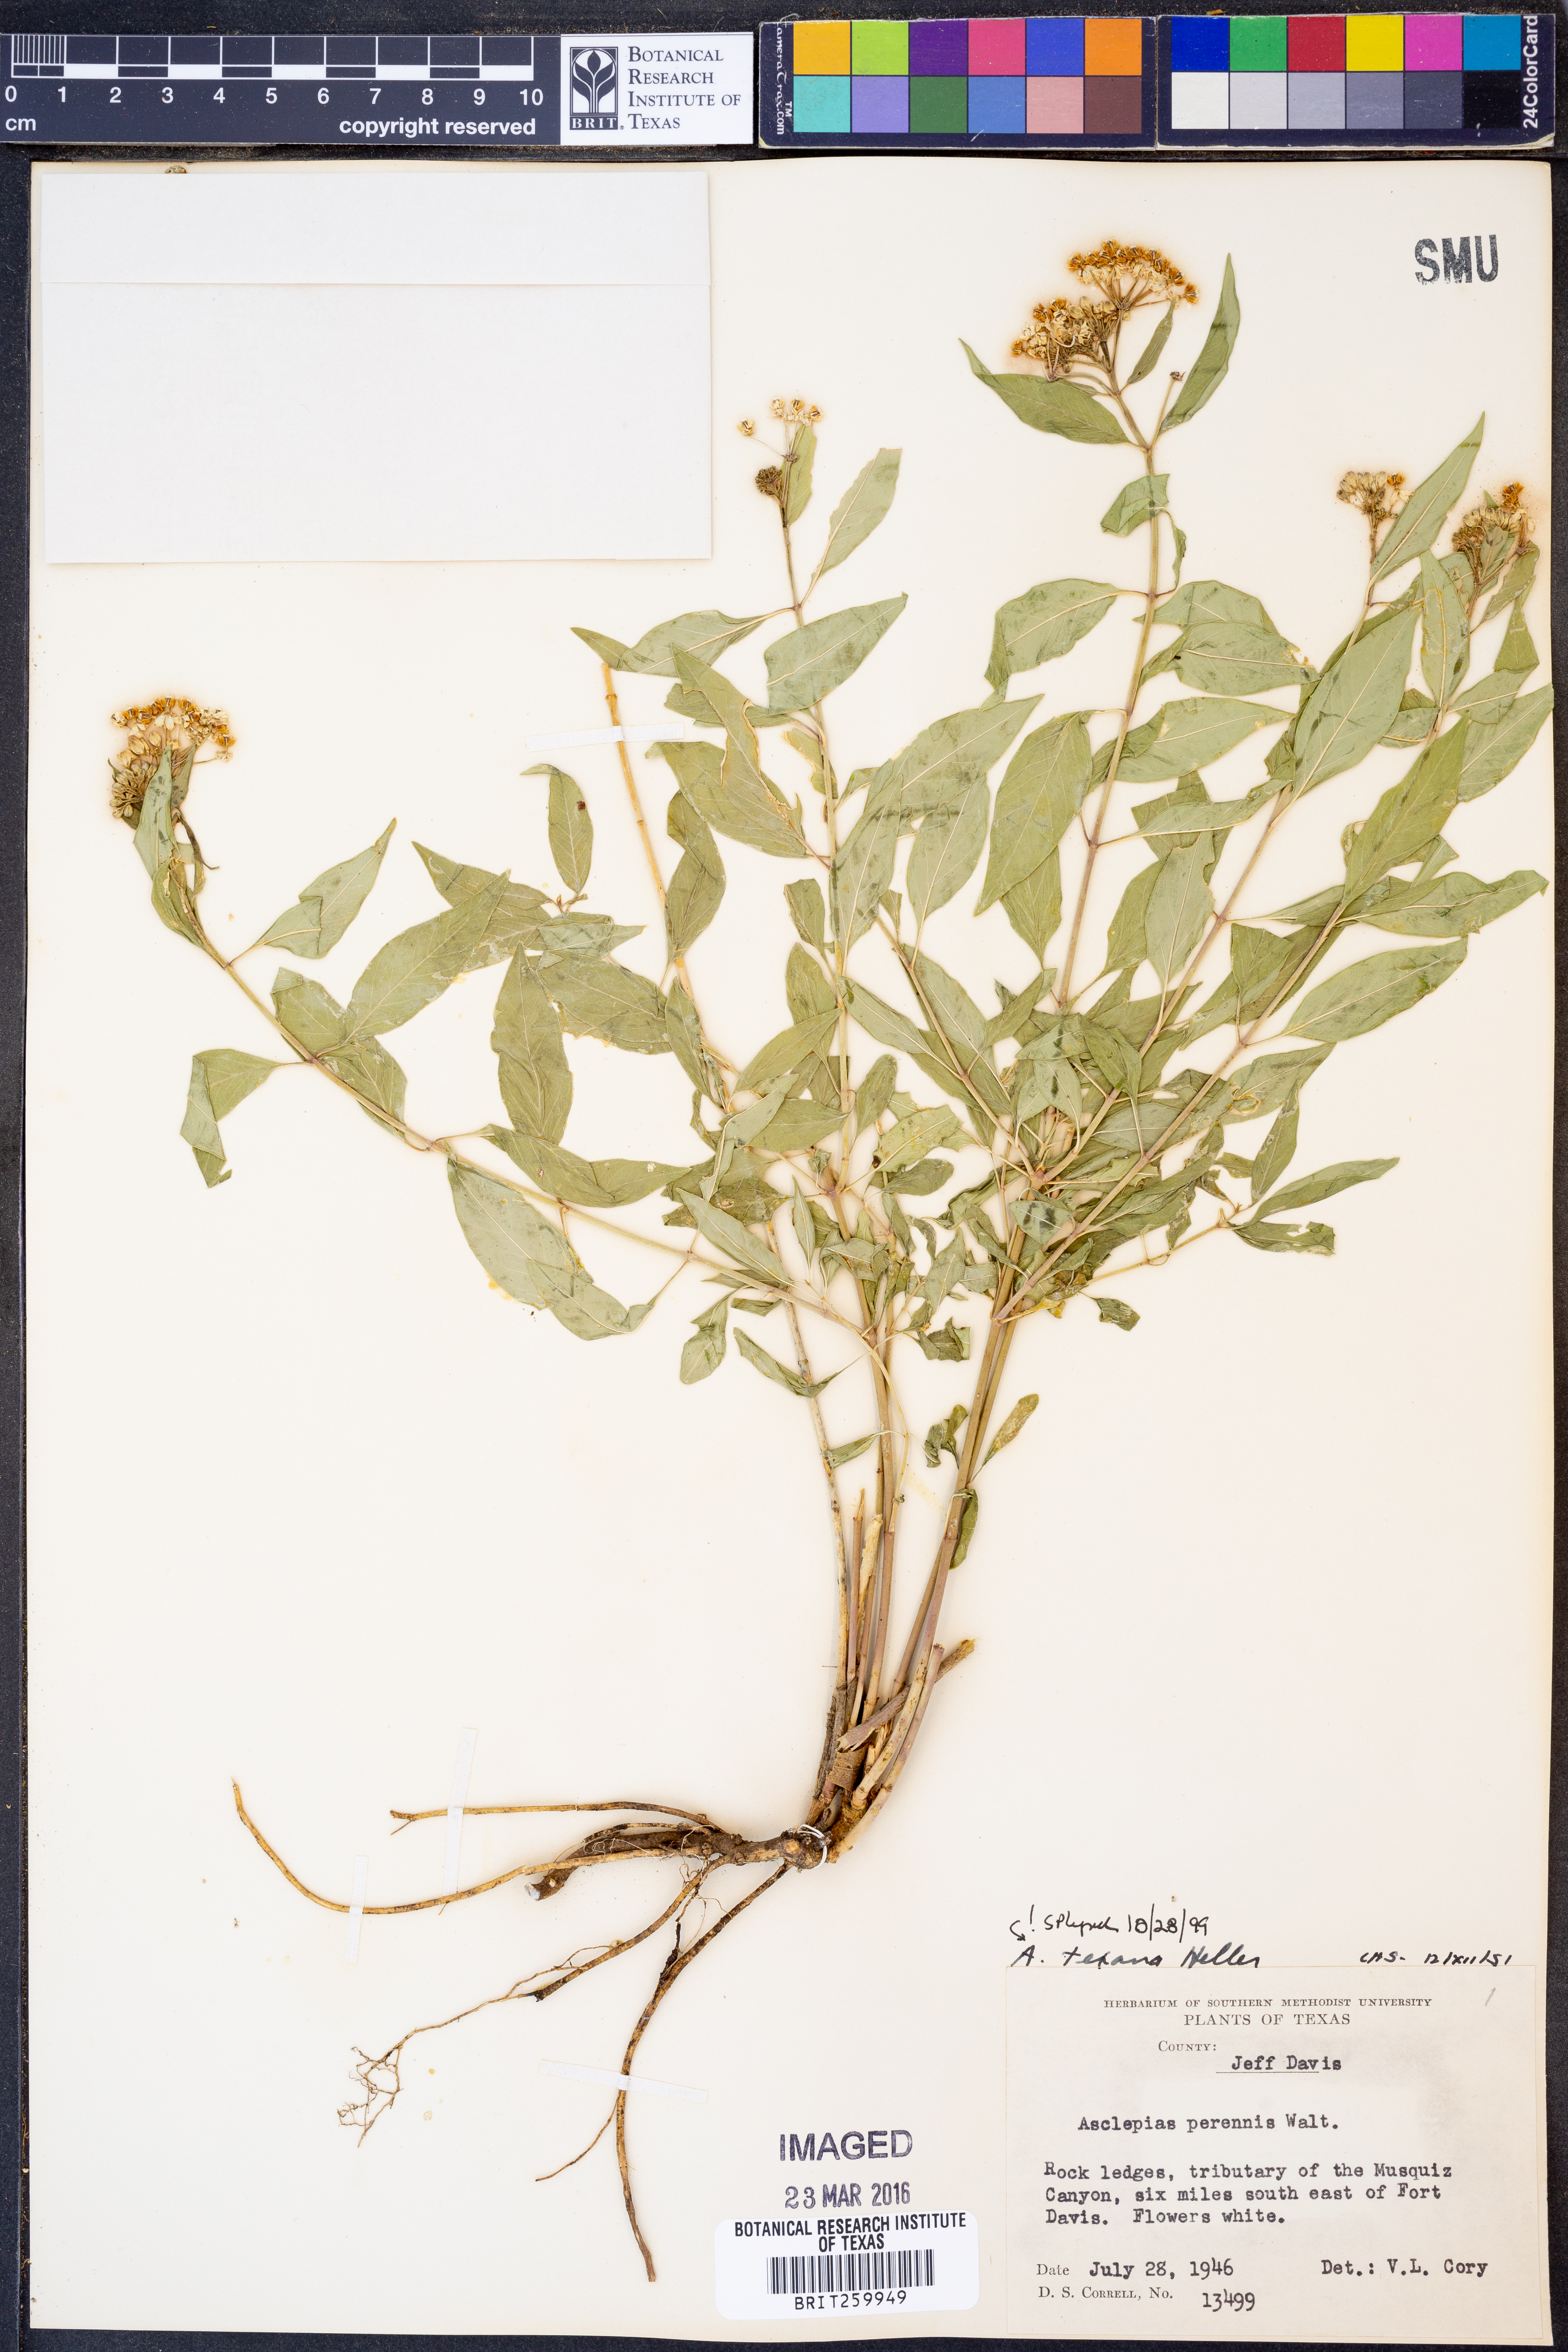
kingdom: Plantae
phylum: Tracheophyta
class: Magnoliopsida
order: Gentianales
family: Apocynaceae
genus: Asclepias
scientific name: Asclepias texana
